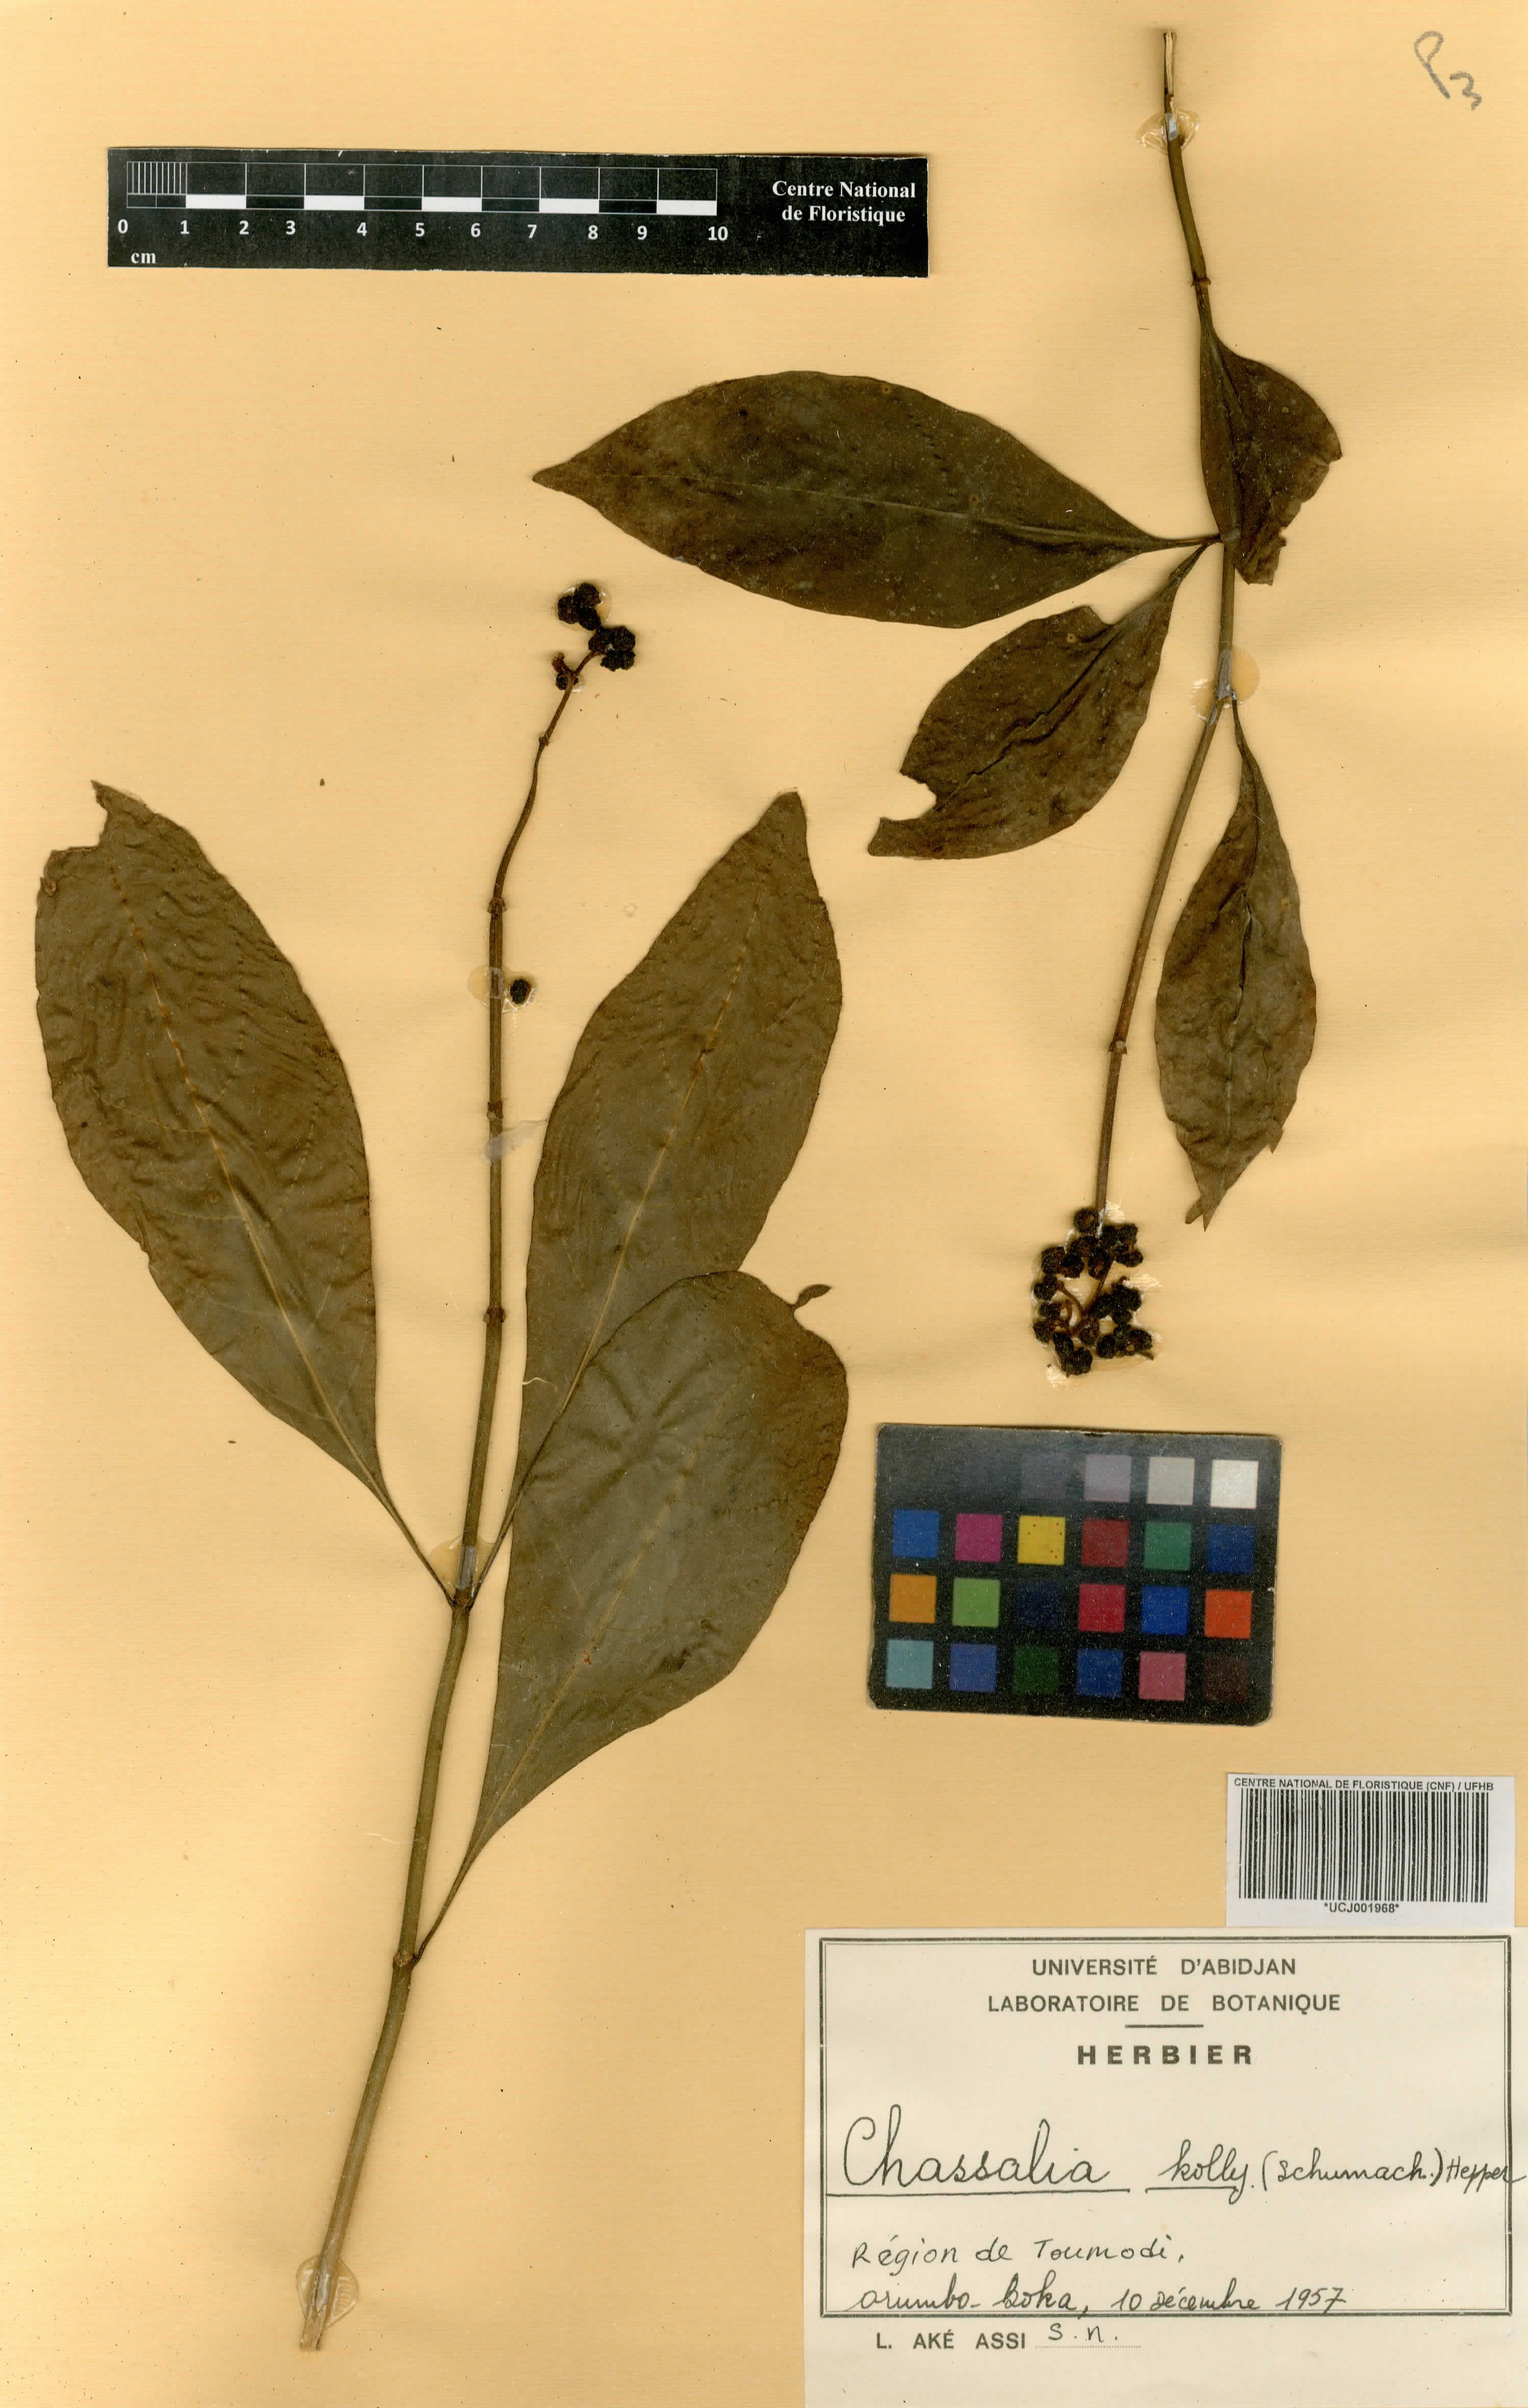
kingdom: Plantae
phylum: Tracheophyta
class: Magnoliopsida
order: Gentianales
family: Rubiaceae
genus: Chassalia
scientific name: Chassalia kolly
